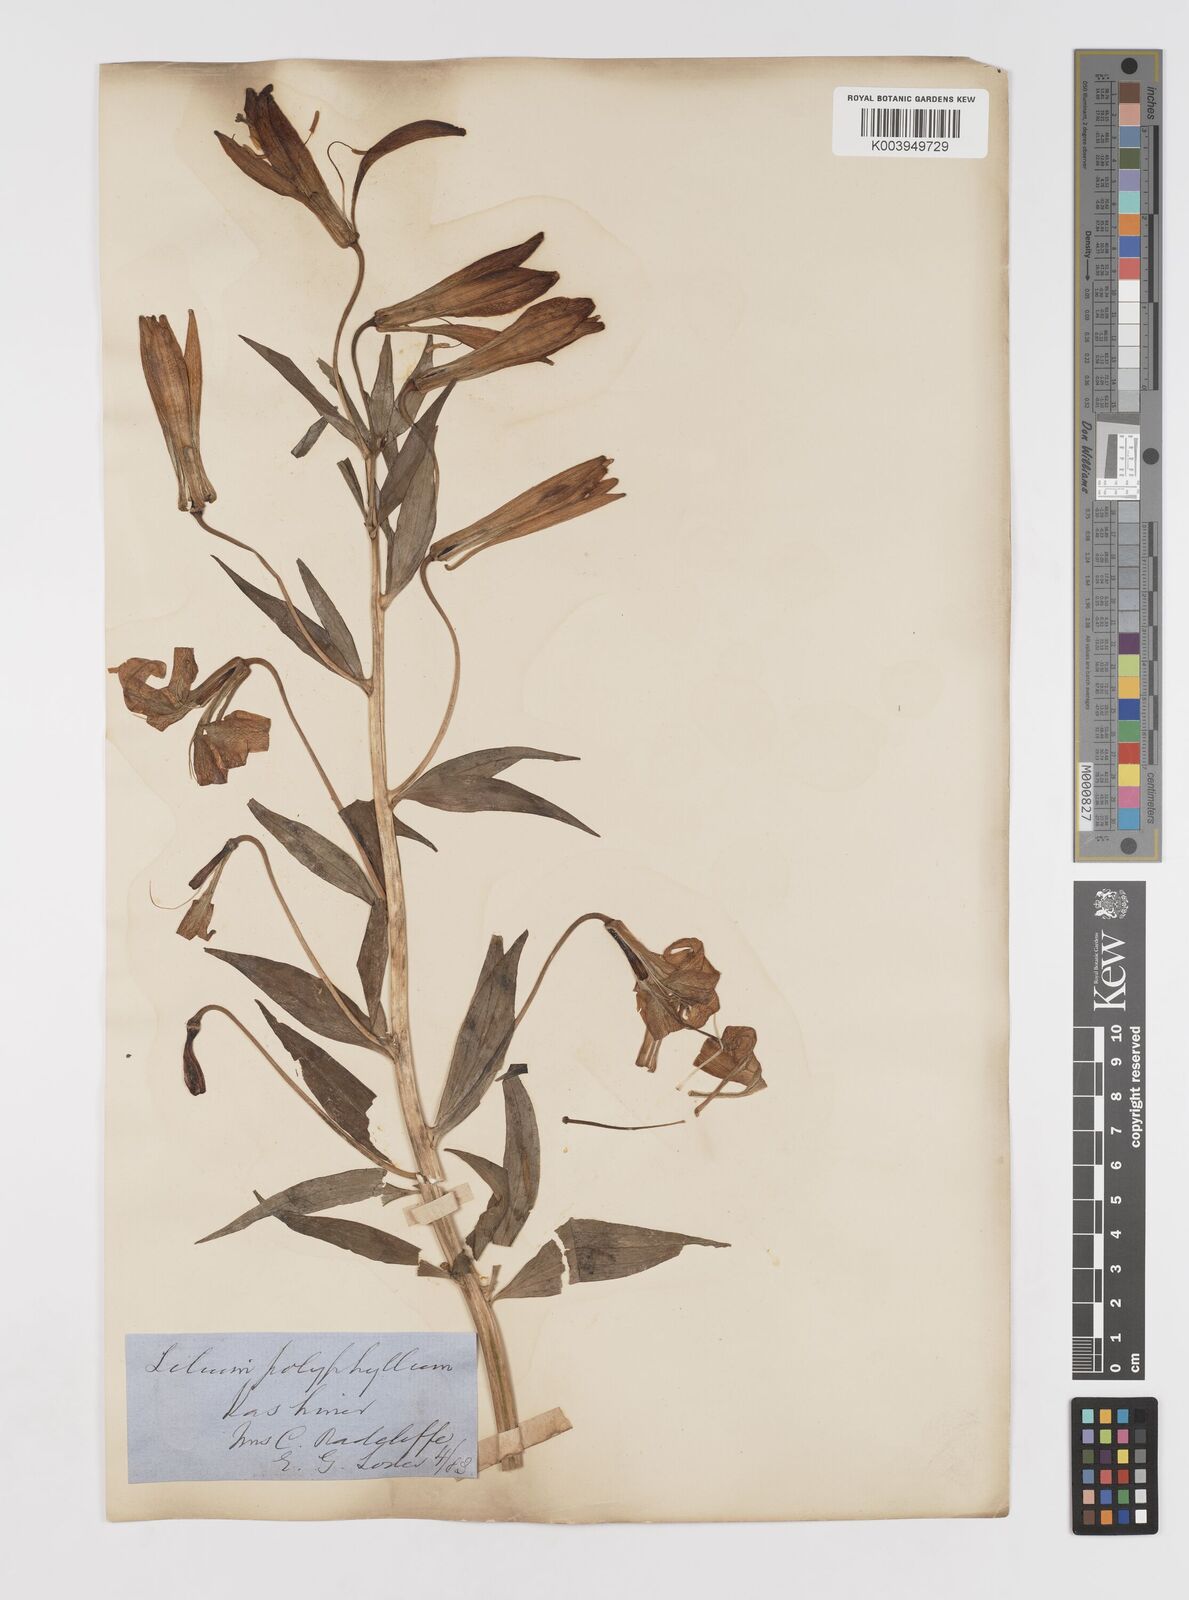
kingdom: Plantae
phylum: Tracheophyta
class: Liliopsida
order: Liliales
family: Liliaceae
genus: Lilium
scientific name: Lilium polyphyllum
